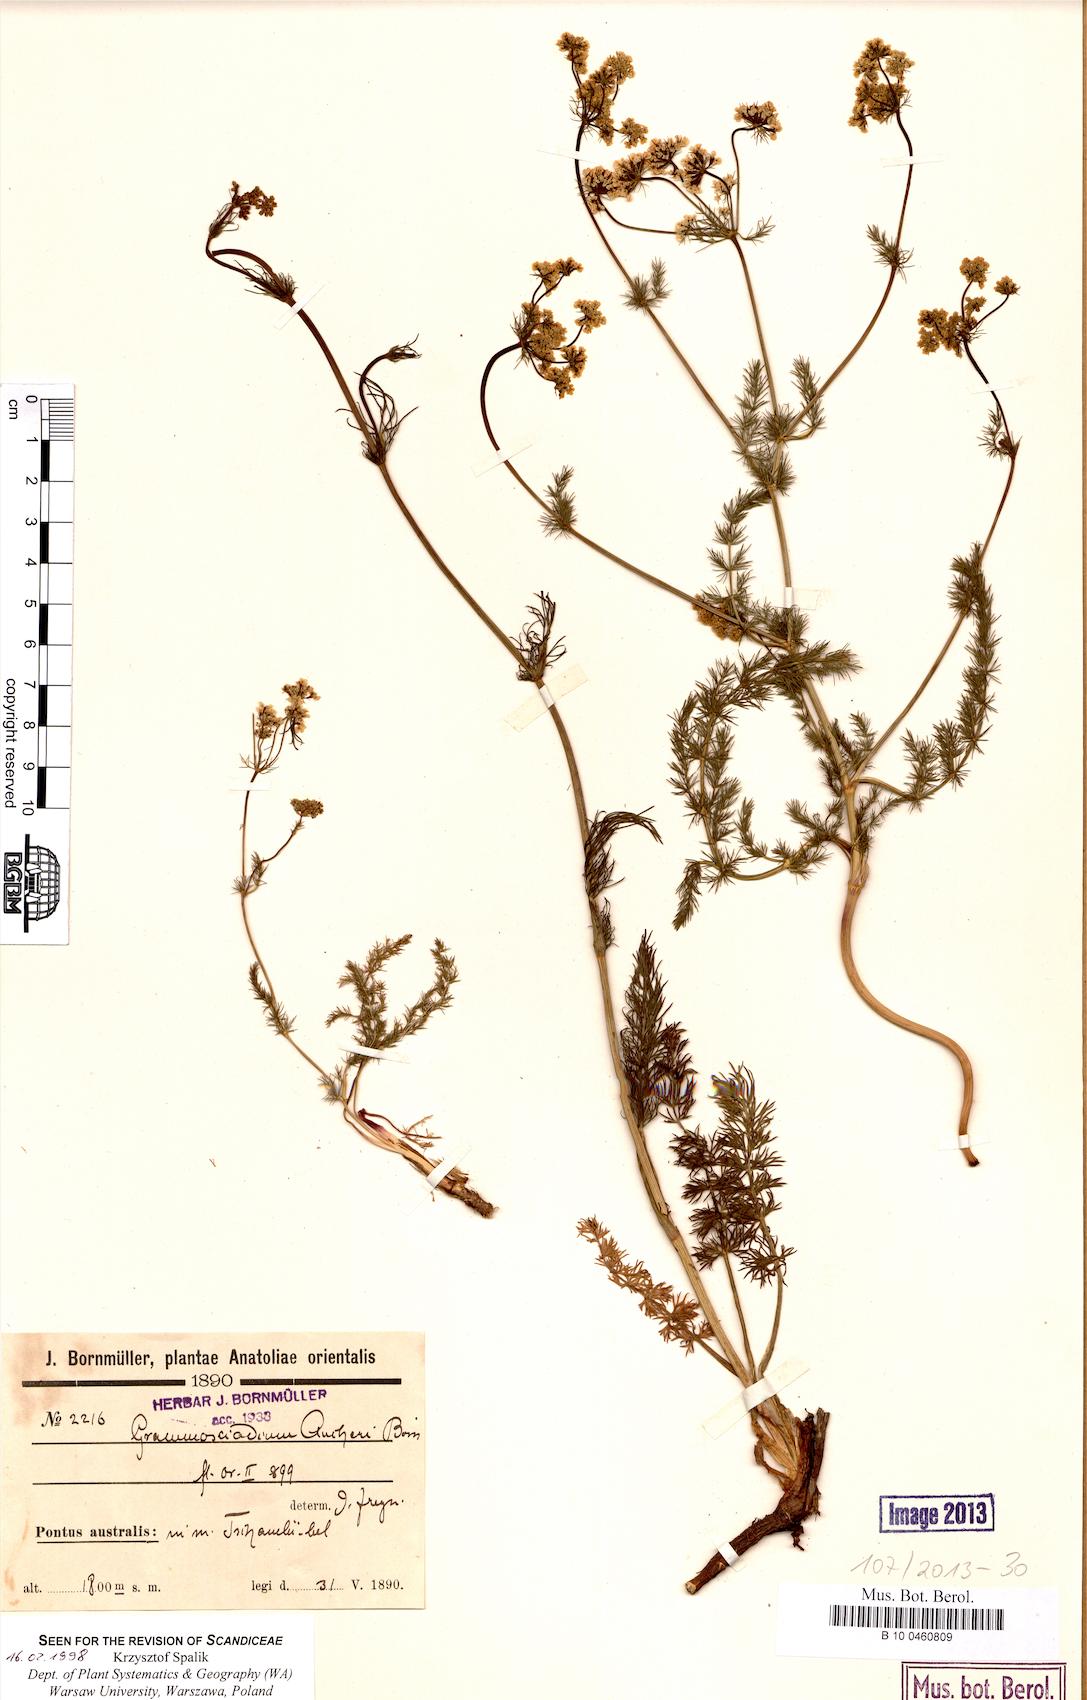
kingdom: Plantae
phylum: Tracheophyta
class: Magnoliopsida
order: Apiales
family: Apiaceae
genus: Grammosciadium
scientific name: Grammosciadium daucoides
